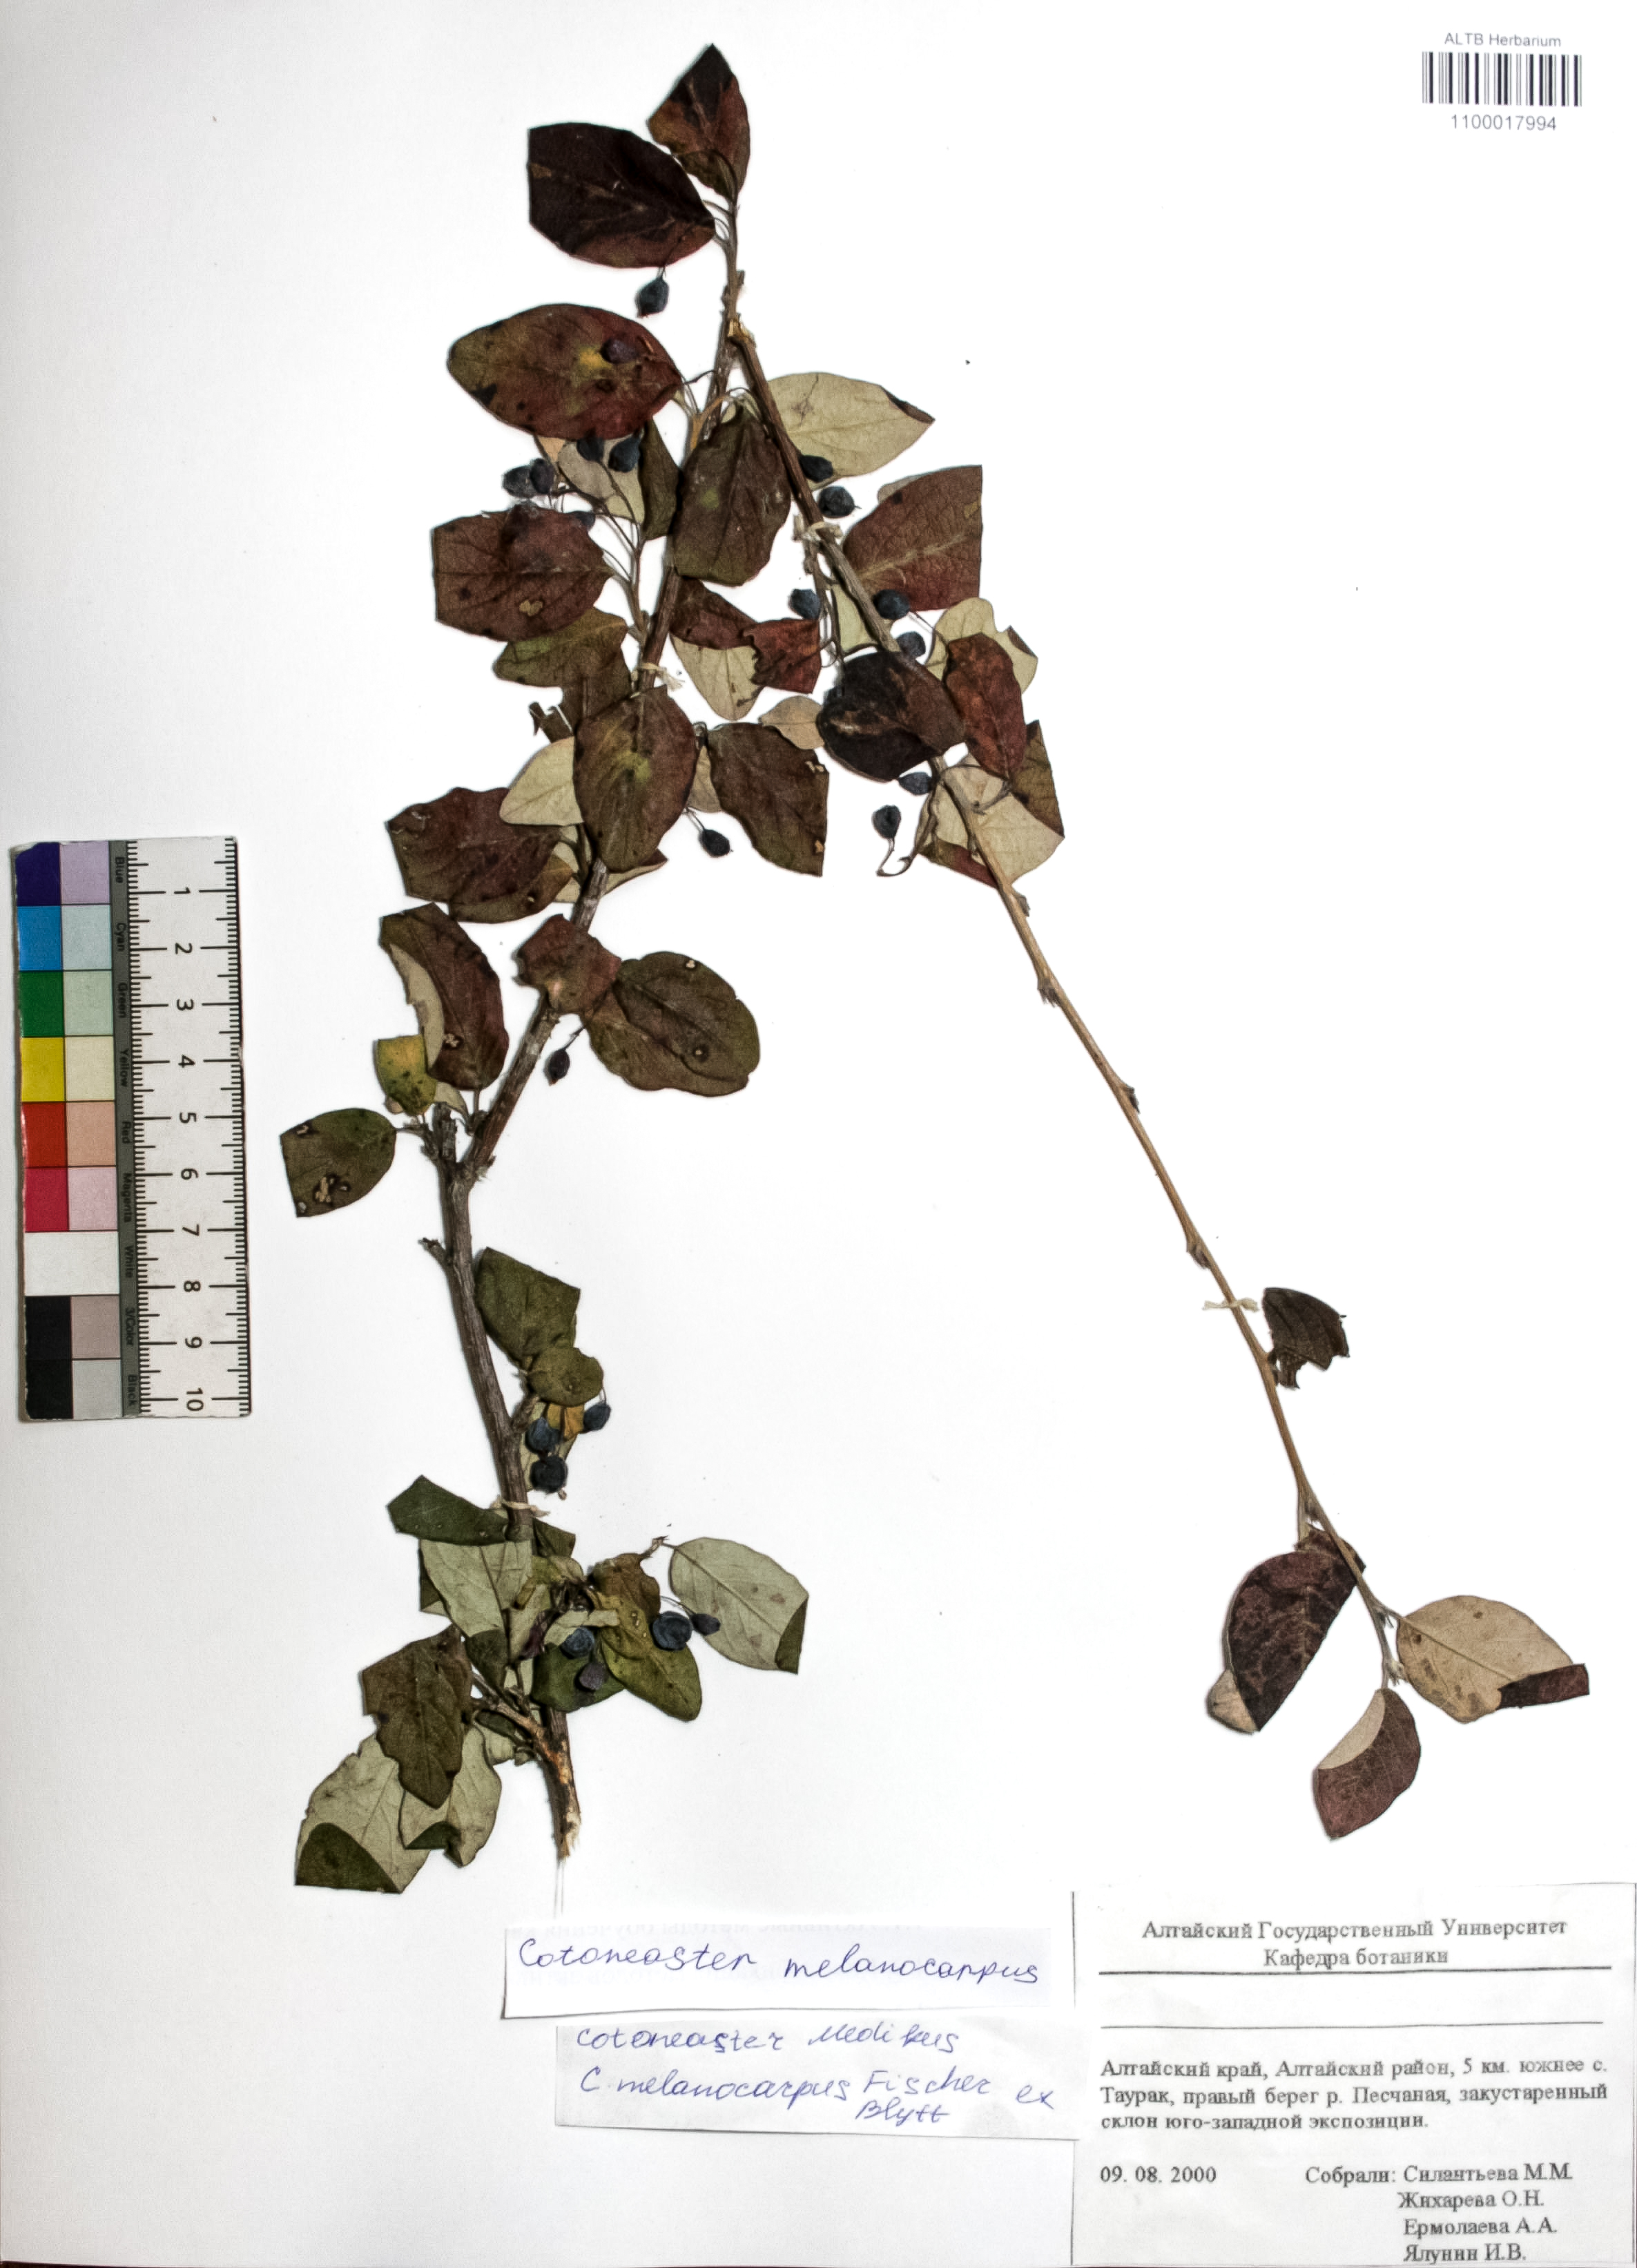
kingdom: Plantae
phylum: Tracheophyta
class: Magnoliopsida
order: Rosales
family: Rosaceae
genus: Cotoneaster
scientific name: Cotoneaster niger
